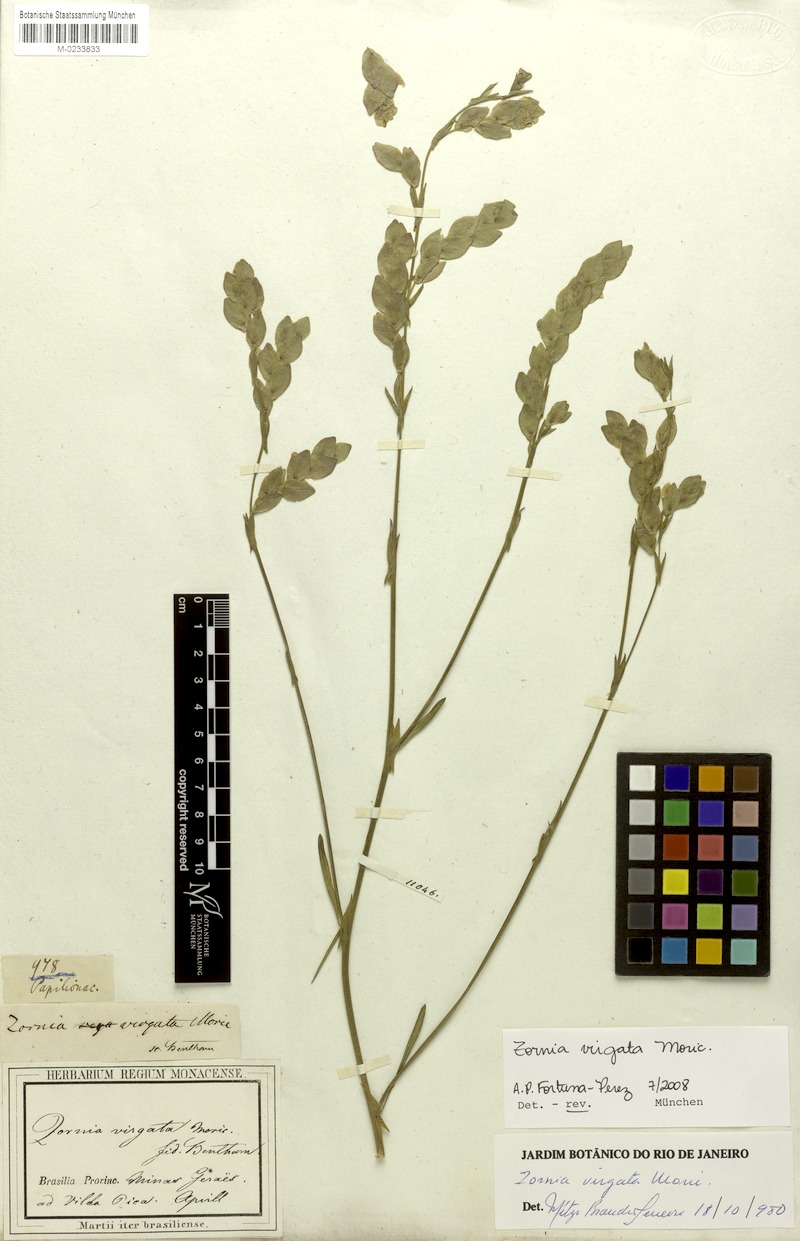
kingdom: Plantae
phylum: Tracheophyta
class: Magnoliopsida
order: Fabales
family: Fabaceae
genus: Zornia
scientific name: Zornia virgata
